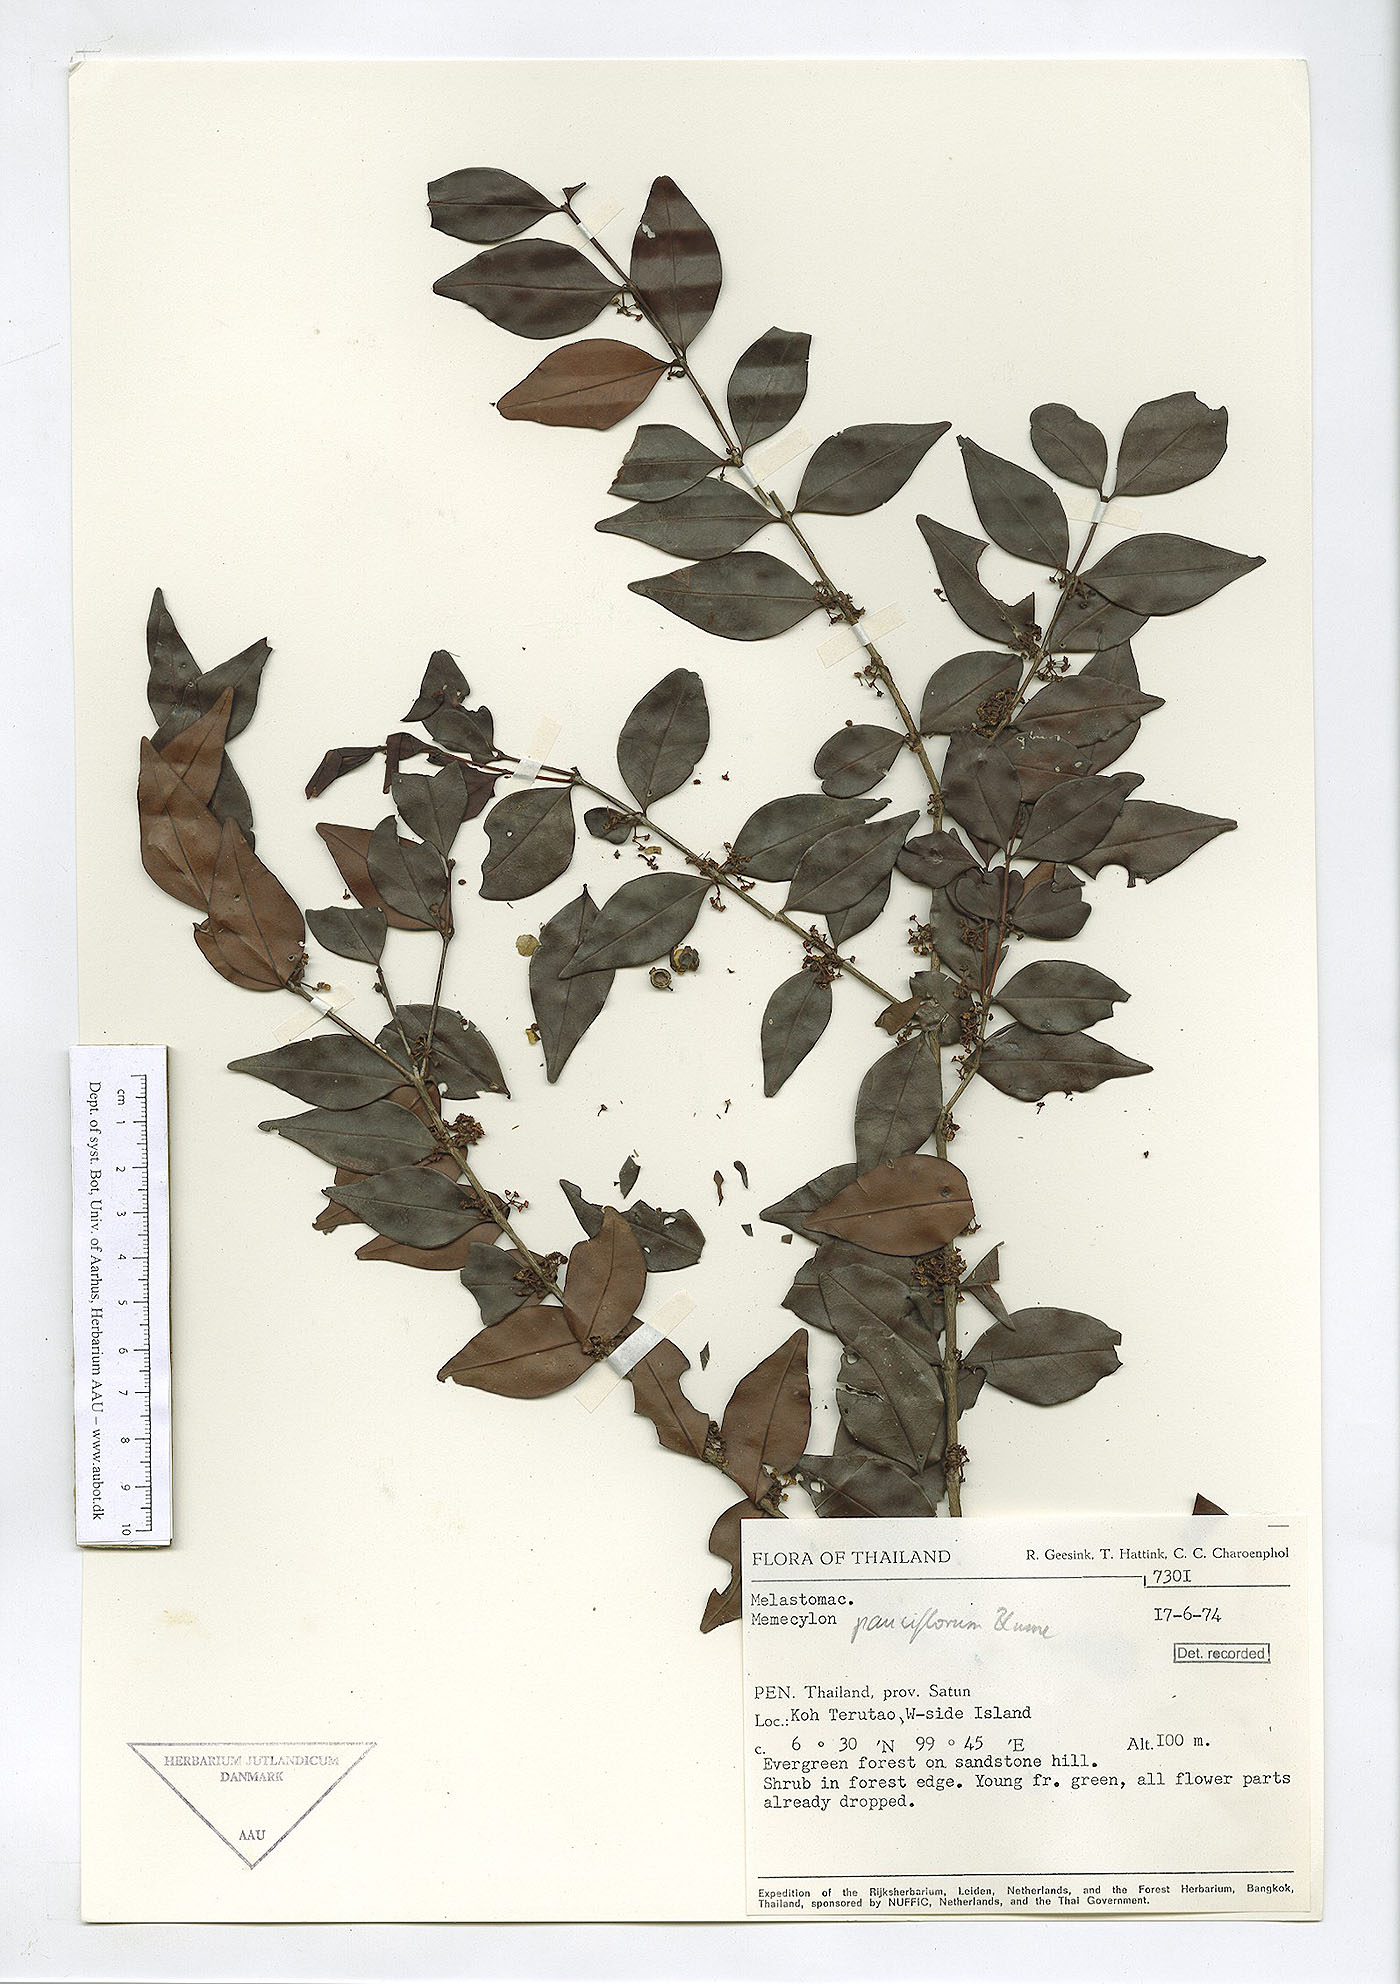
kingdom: Plantae
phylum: Tracheophyta
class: Magnoliopsida
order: Myrtales
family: Melastomataceae
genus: Memecylon
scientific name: Memecylon pauciflorum
